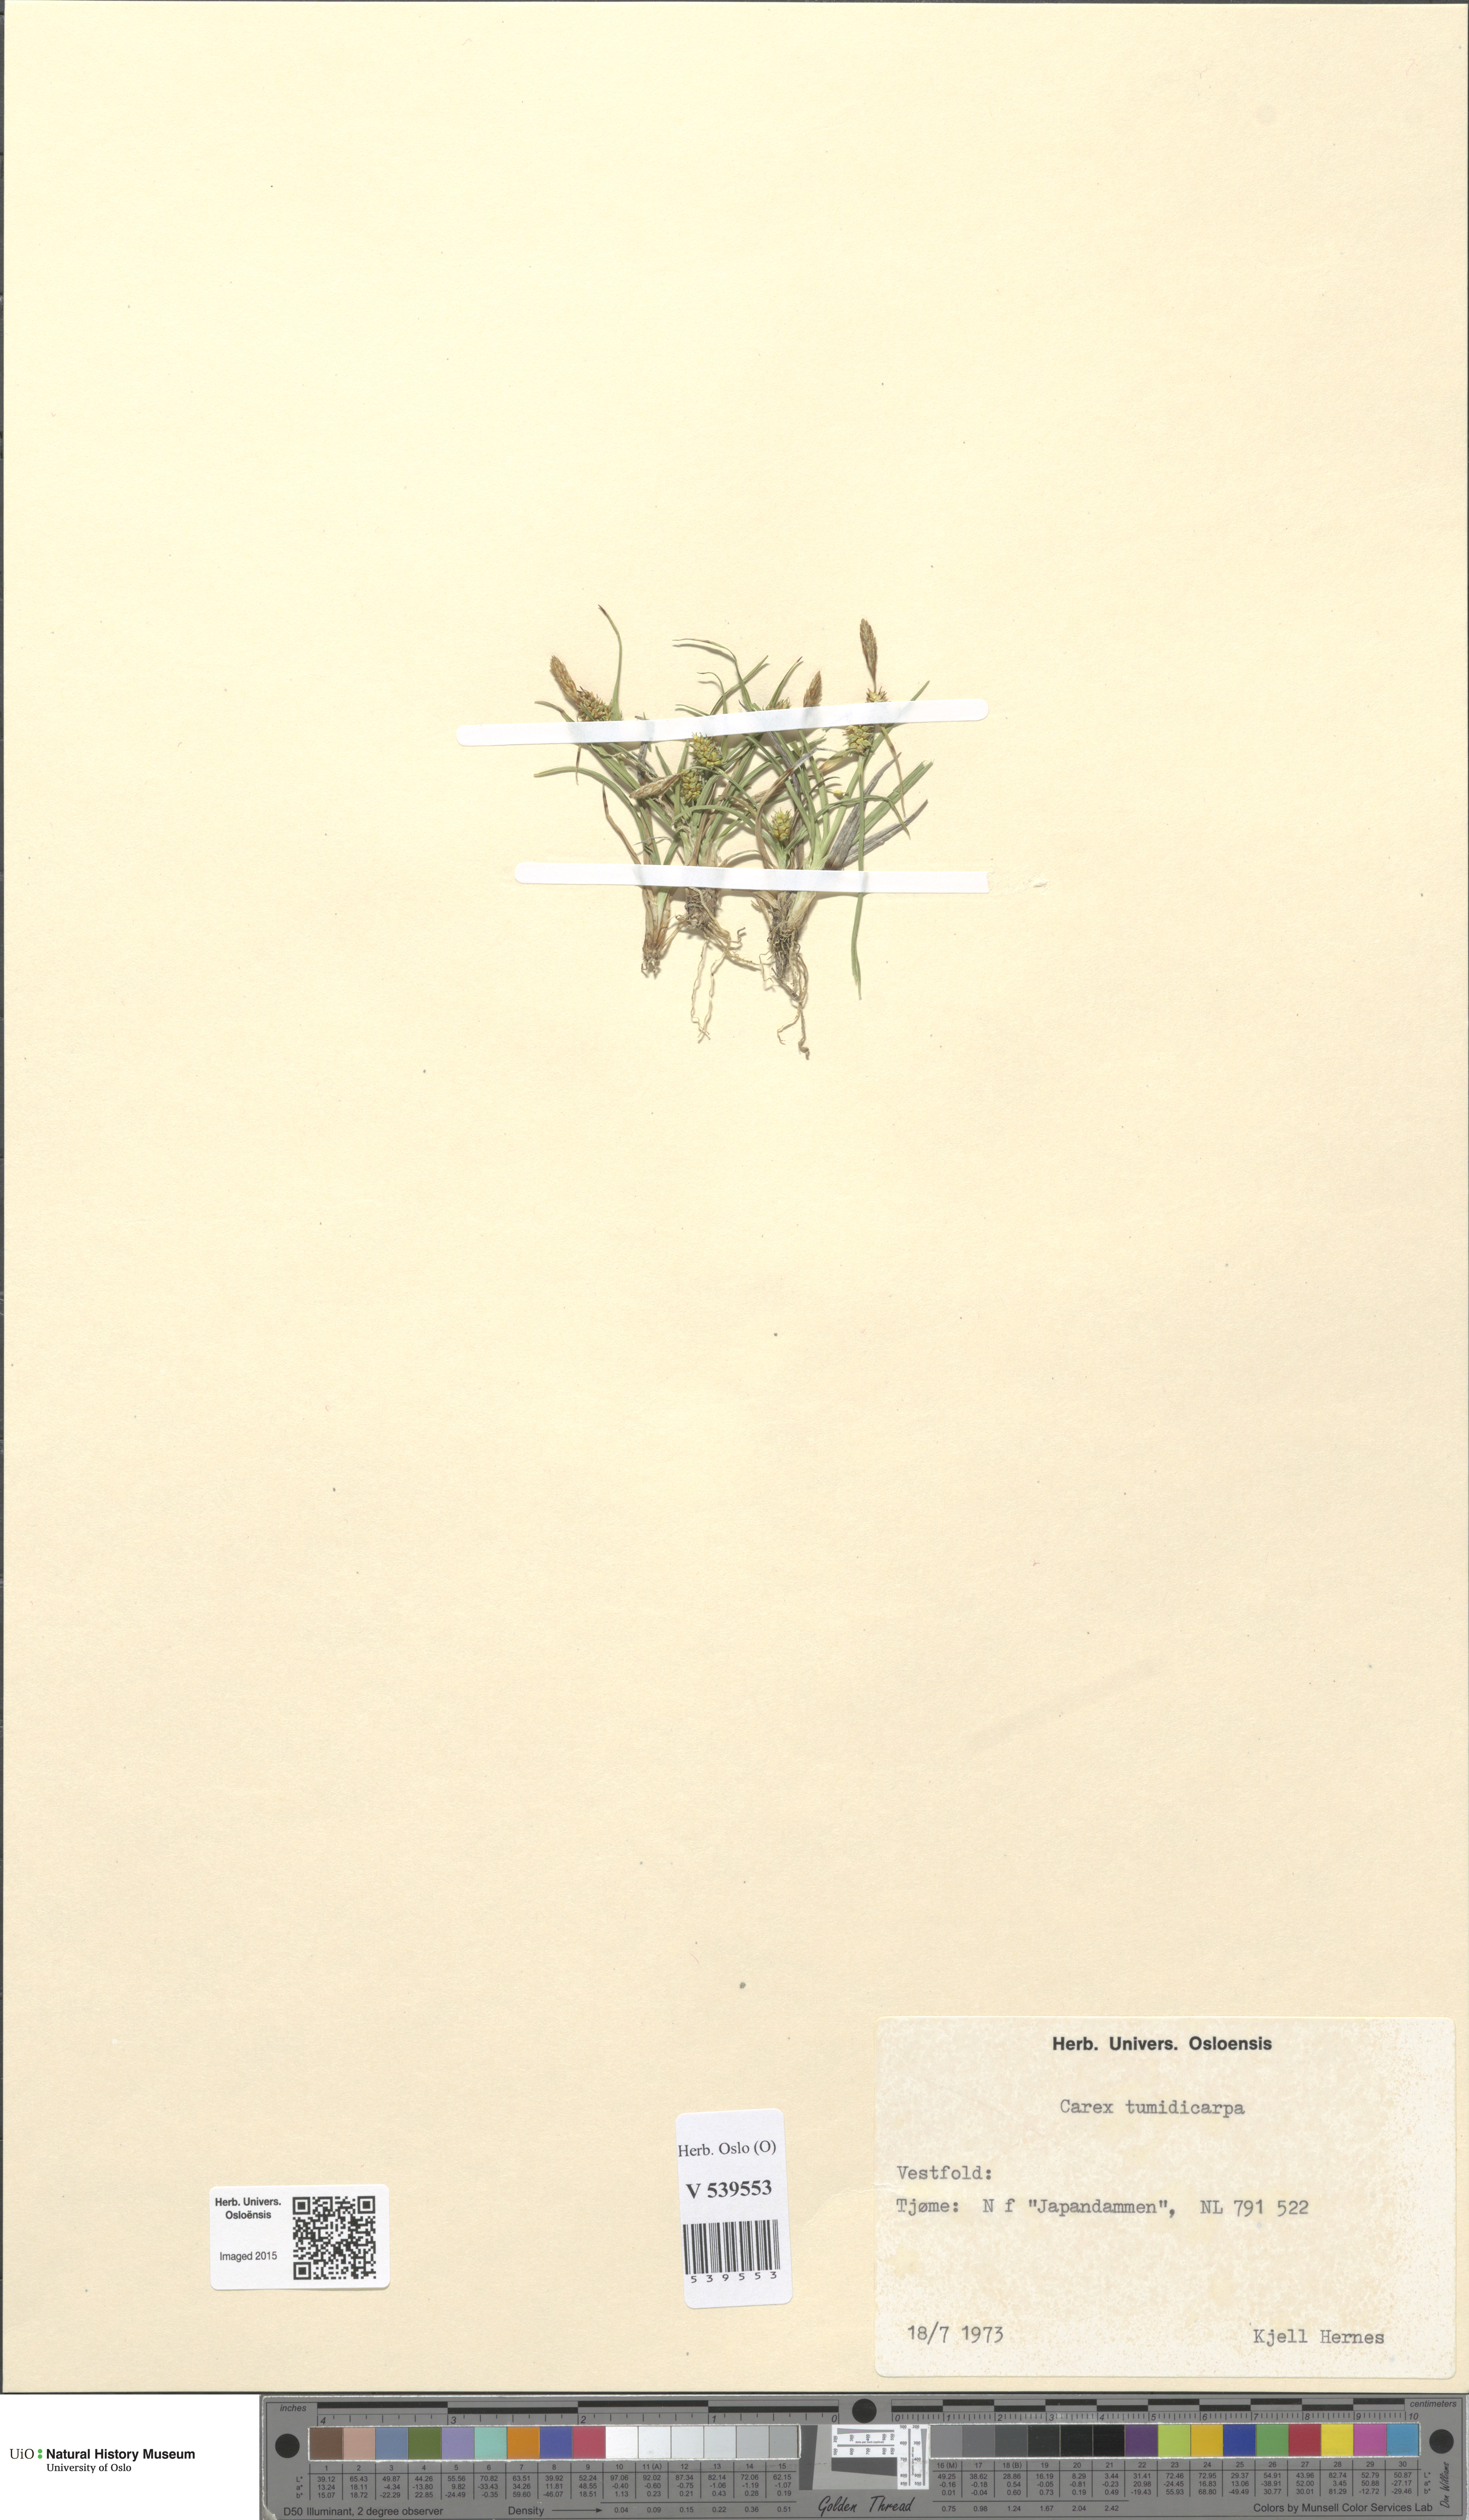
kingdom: Plantae
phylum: Tracheophyta
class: Liliopsida
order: Poales
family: Cyperaceae
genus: Carex
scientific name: Carex demissa
